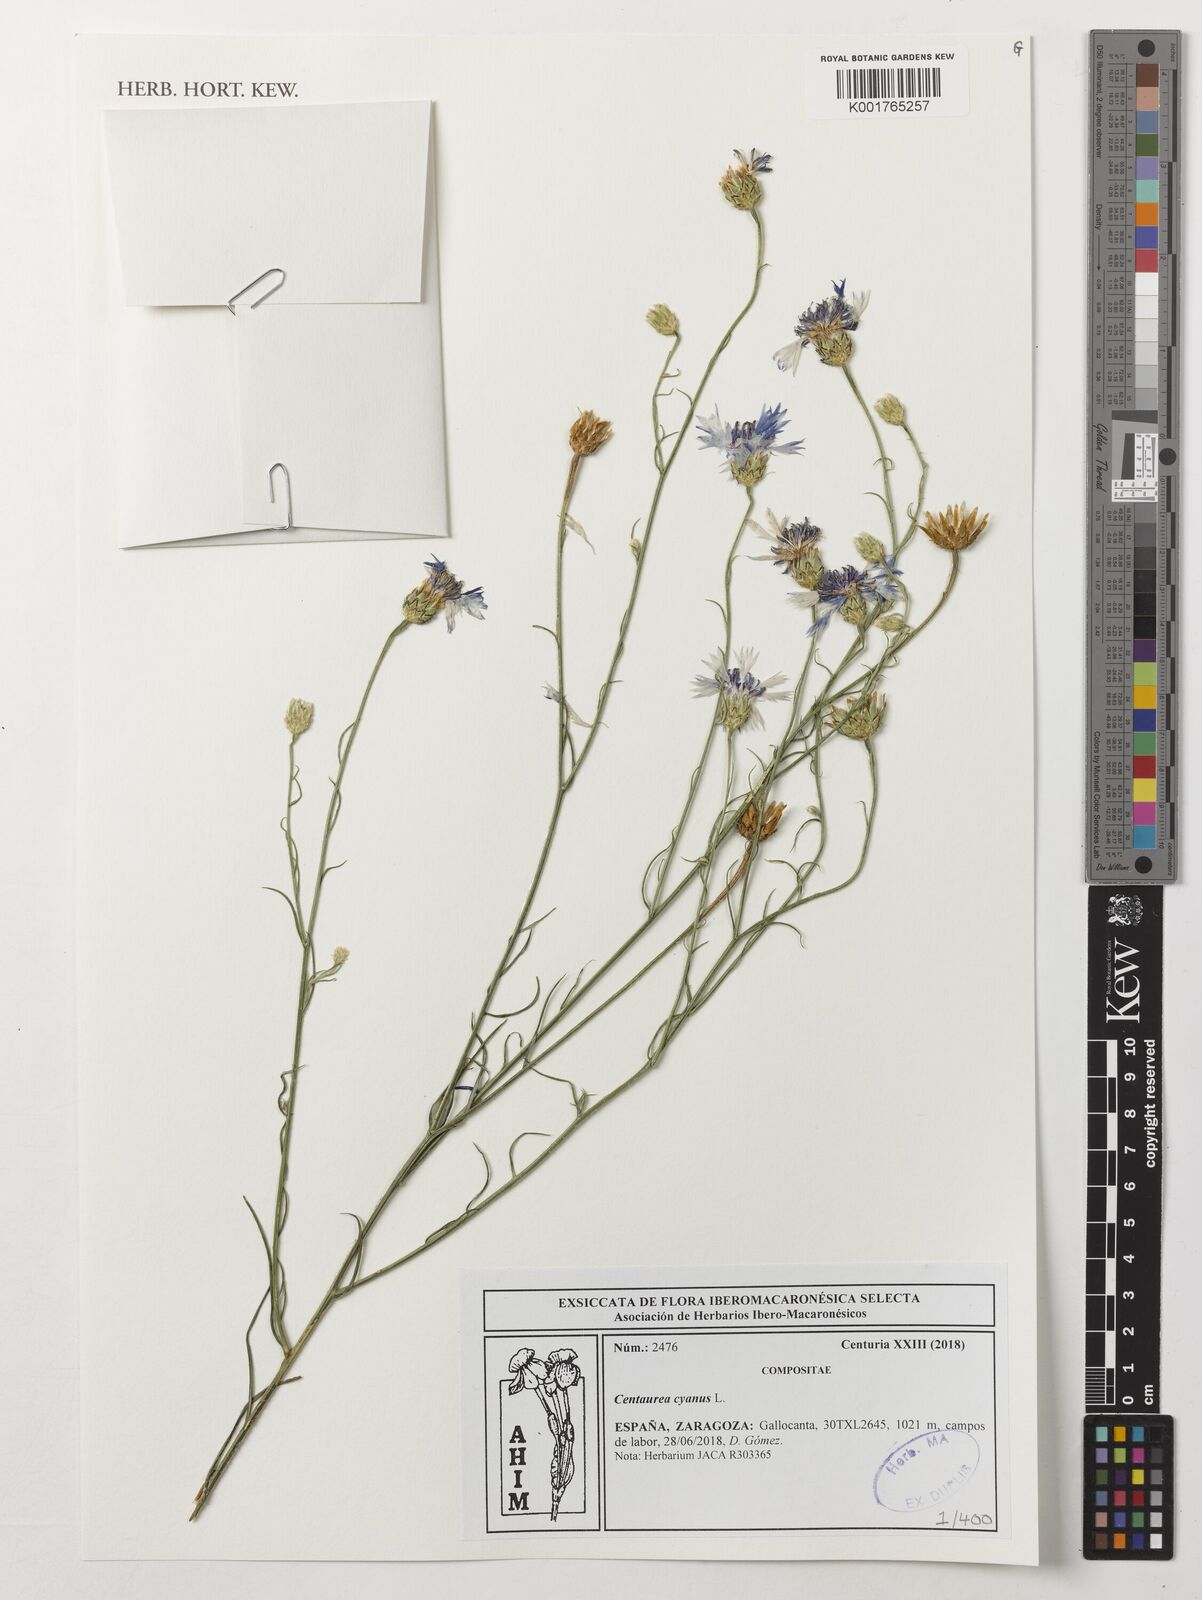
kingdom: Plantae
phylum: Tracheophyta
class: Magnoliopsida
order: Asterales
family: Asteraceae
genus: Centaurea
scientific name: Centaurea cyanus
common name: Cornflower
